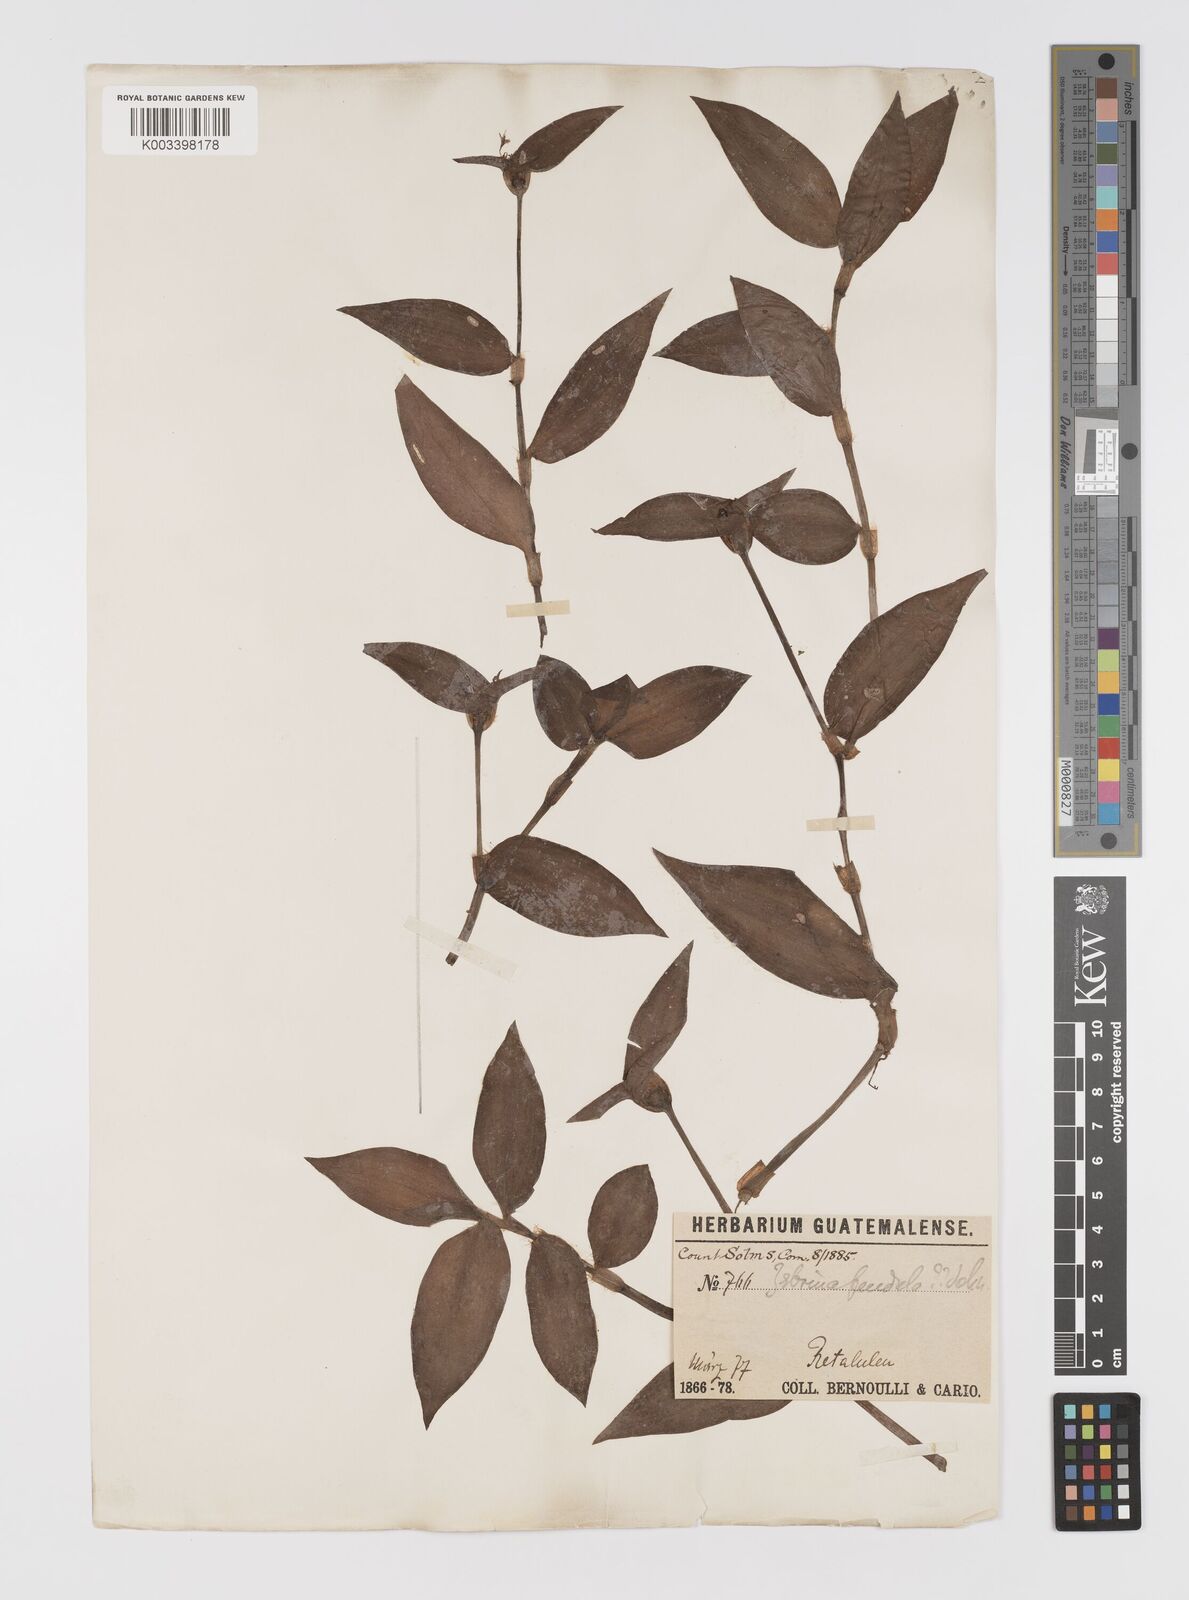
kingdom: Plantae
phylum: Tracheophyta
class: Liliopsida
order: Commelinales
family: Commelinaceae
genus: Tradescantia
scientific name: Tradescantia zebrina
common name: Inchplant
